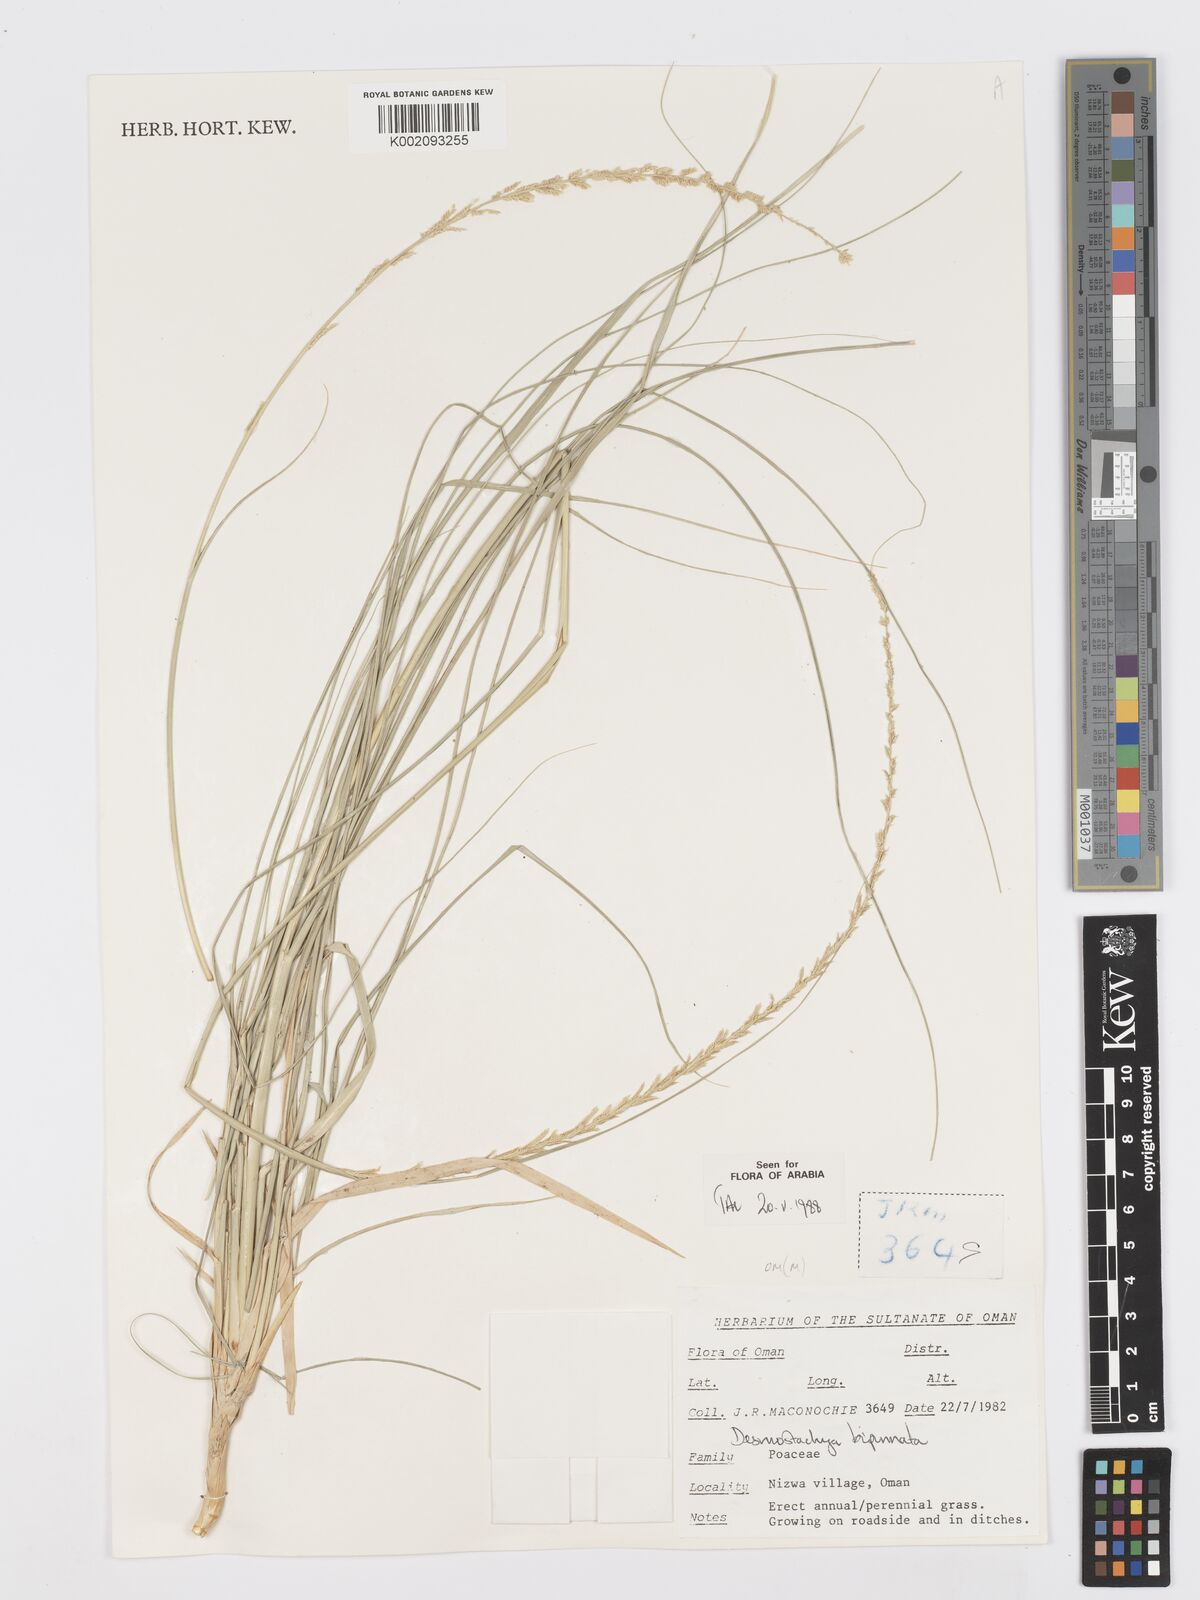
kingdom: Plantae
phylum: Tracheophyta
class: Liliopsida
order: Poales
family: Poaceae
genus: Desmostachya
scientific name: Desmostachya bipinnata
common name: Crowfoot grass
